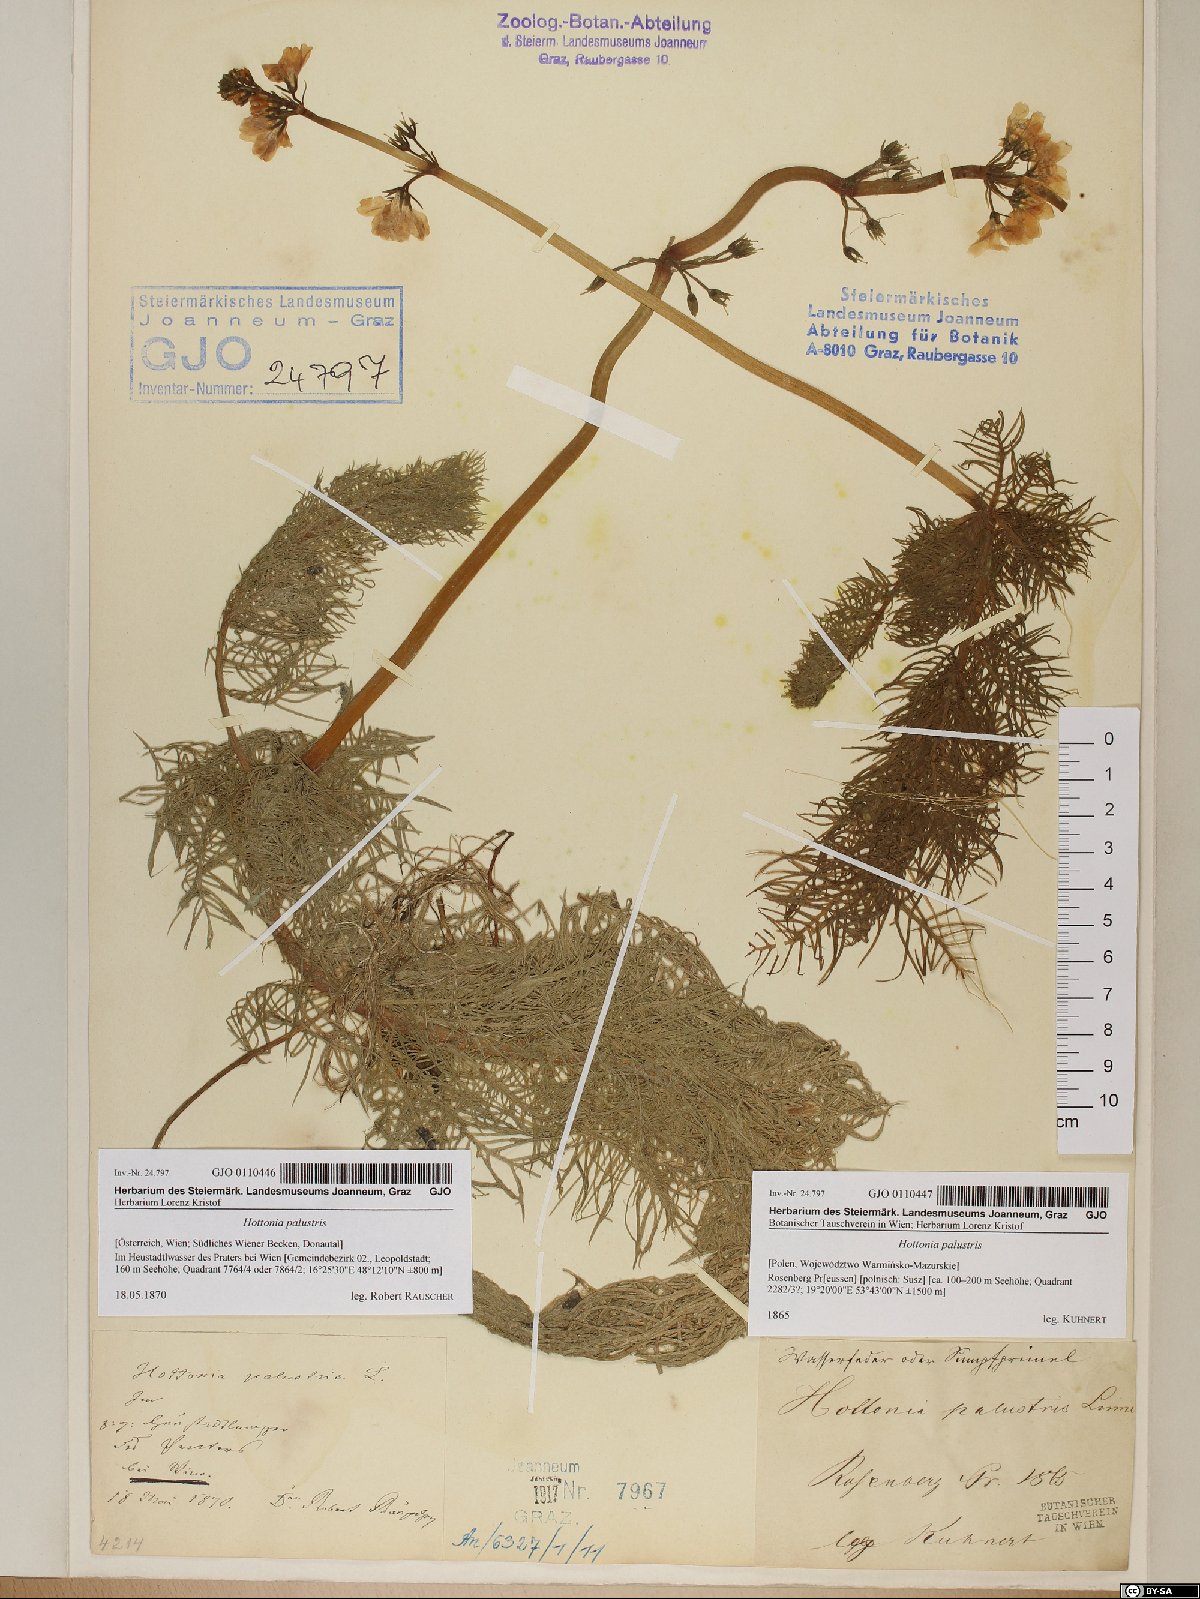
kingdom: Plantae
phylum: Tracheophyta
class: Magnoliopsida
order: Ericales
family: Primulaceae
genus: Hottonia
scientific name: Hottonia palustris
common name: Water-violet
